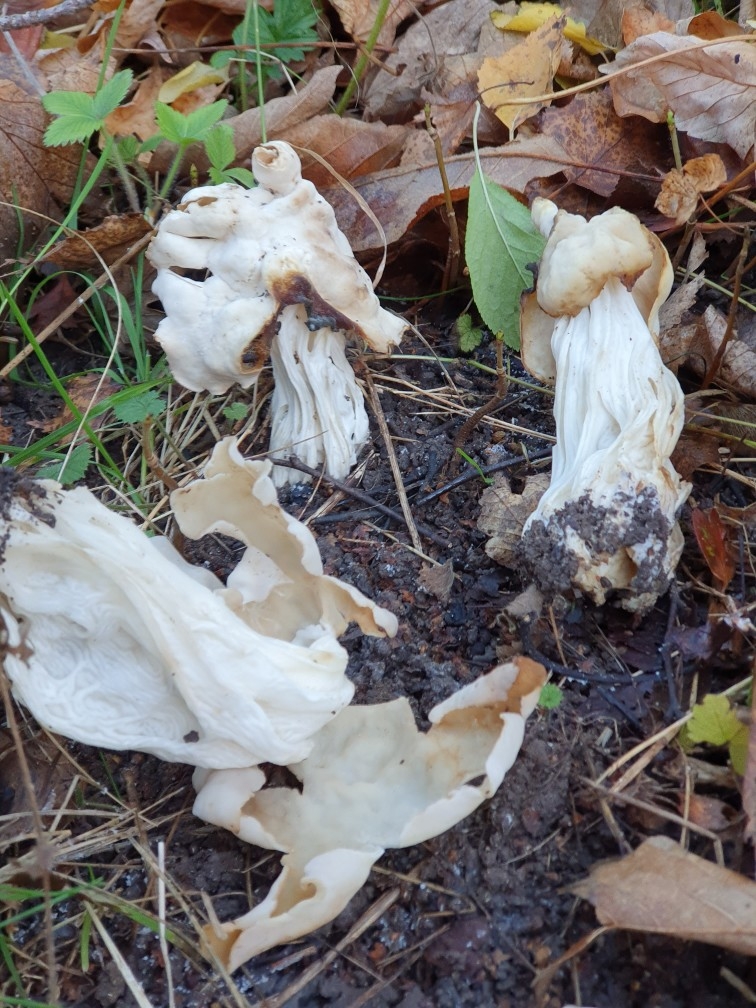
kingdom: Fungi
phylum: Ascomycota
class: Pezizomycetes
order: Pezizales
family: Helvellaceae
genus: Helvella
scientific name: Helvella crispa
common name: kruset foldhat
